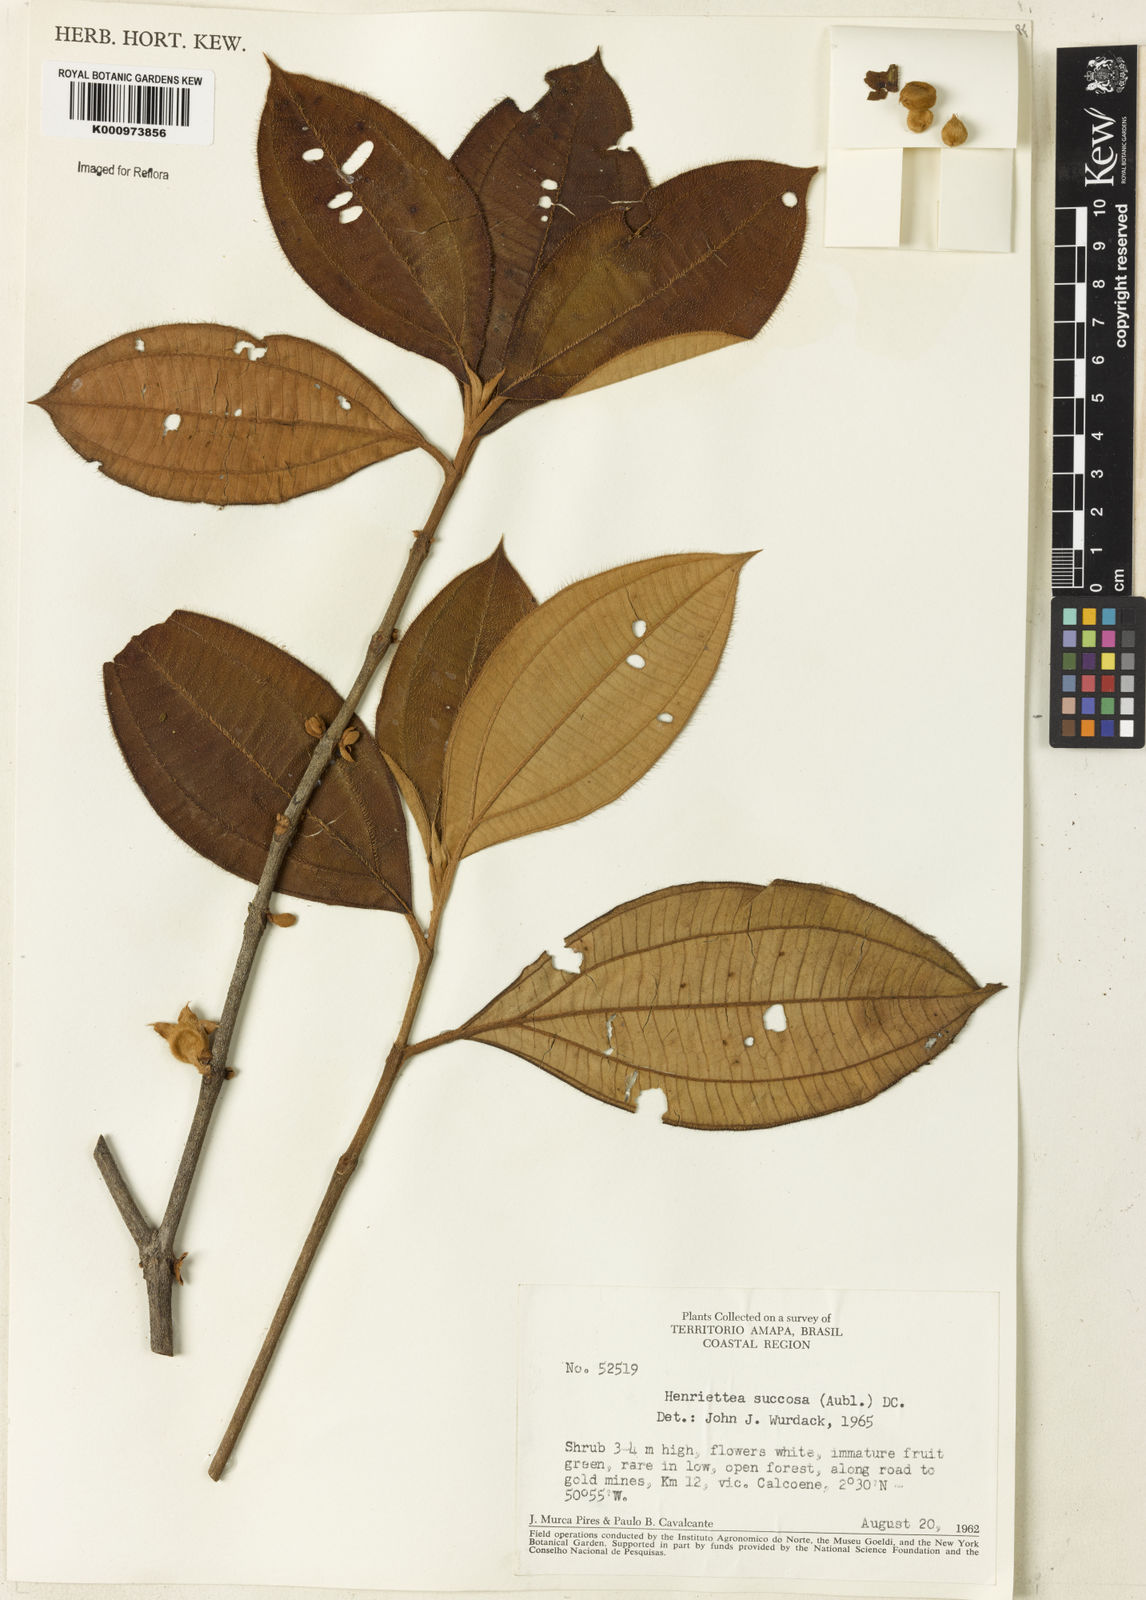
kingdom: Plantae
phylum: Tracheophyta
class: Magnoliopsida
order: Myrtales
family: Melastomataceae
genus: Henriettea
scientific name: Henriettea succosa
